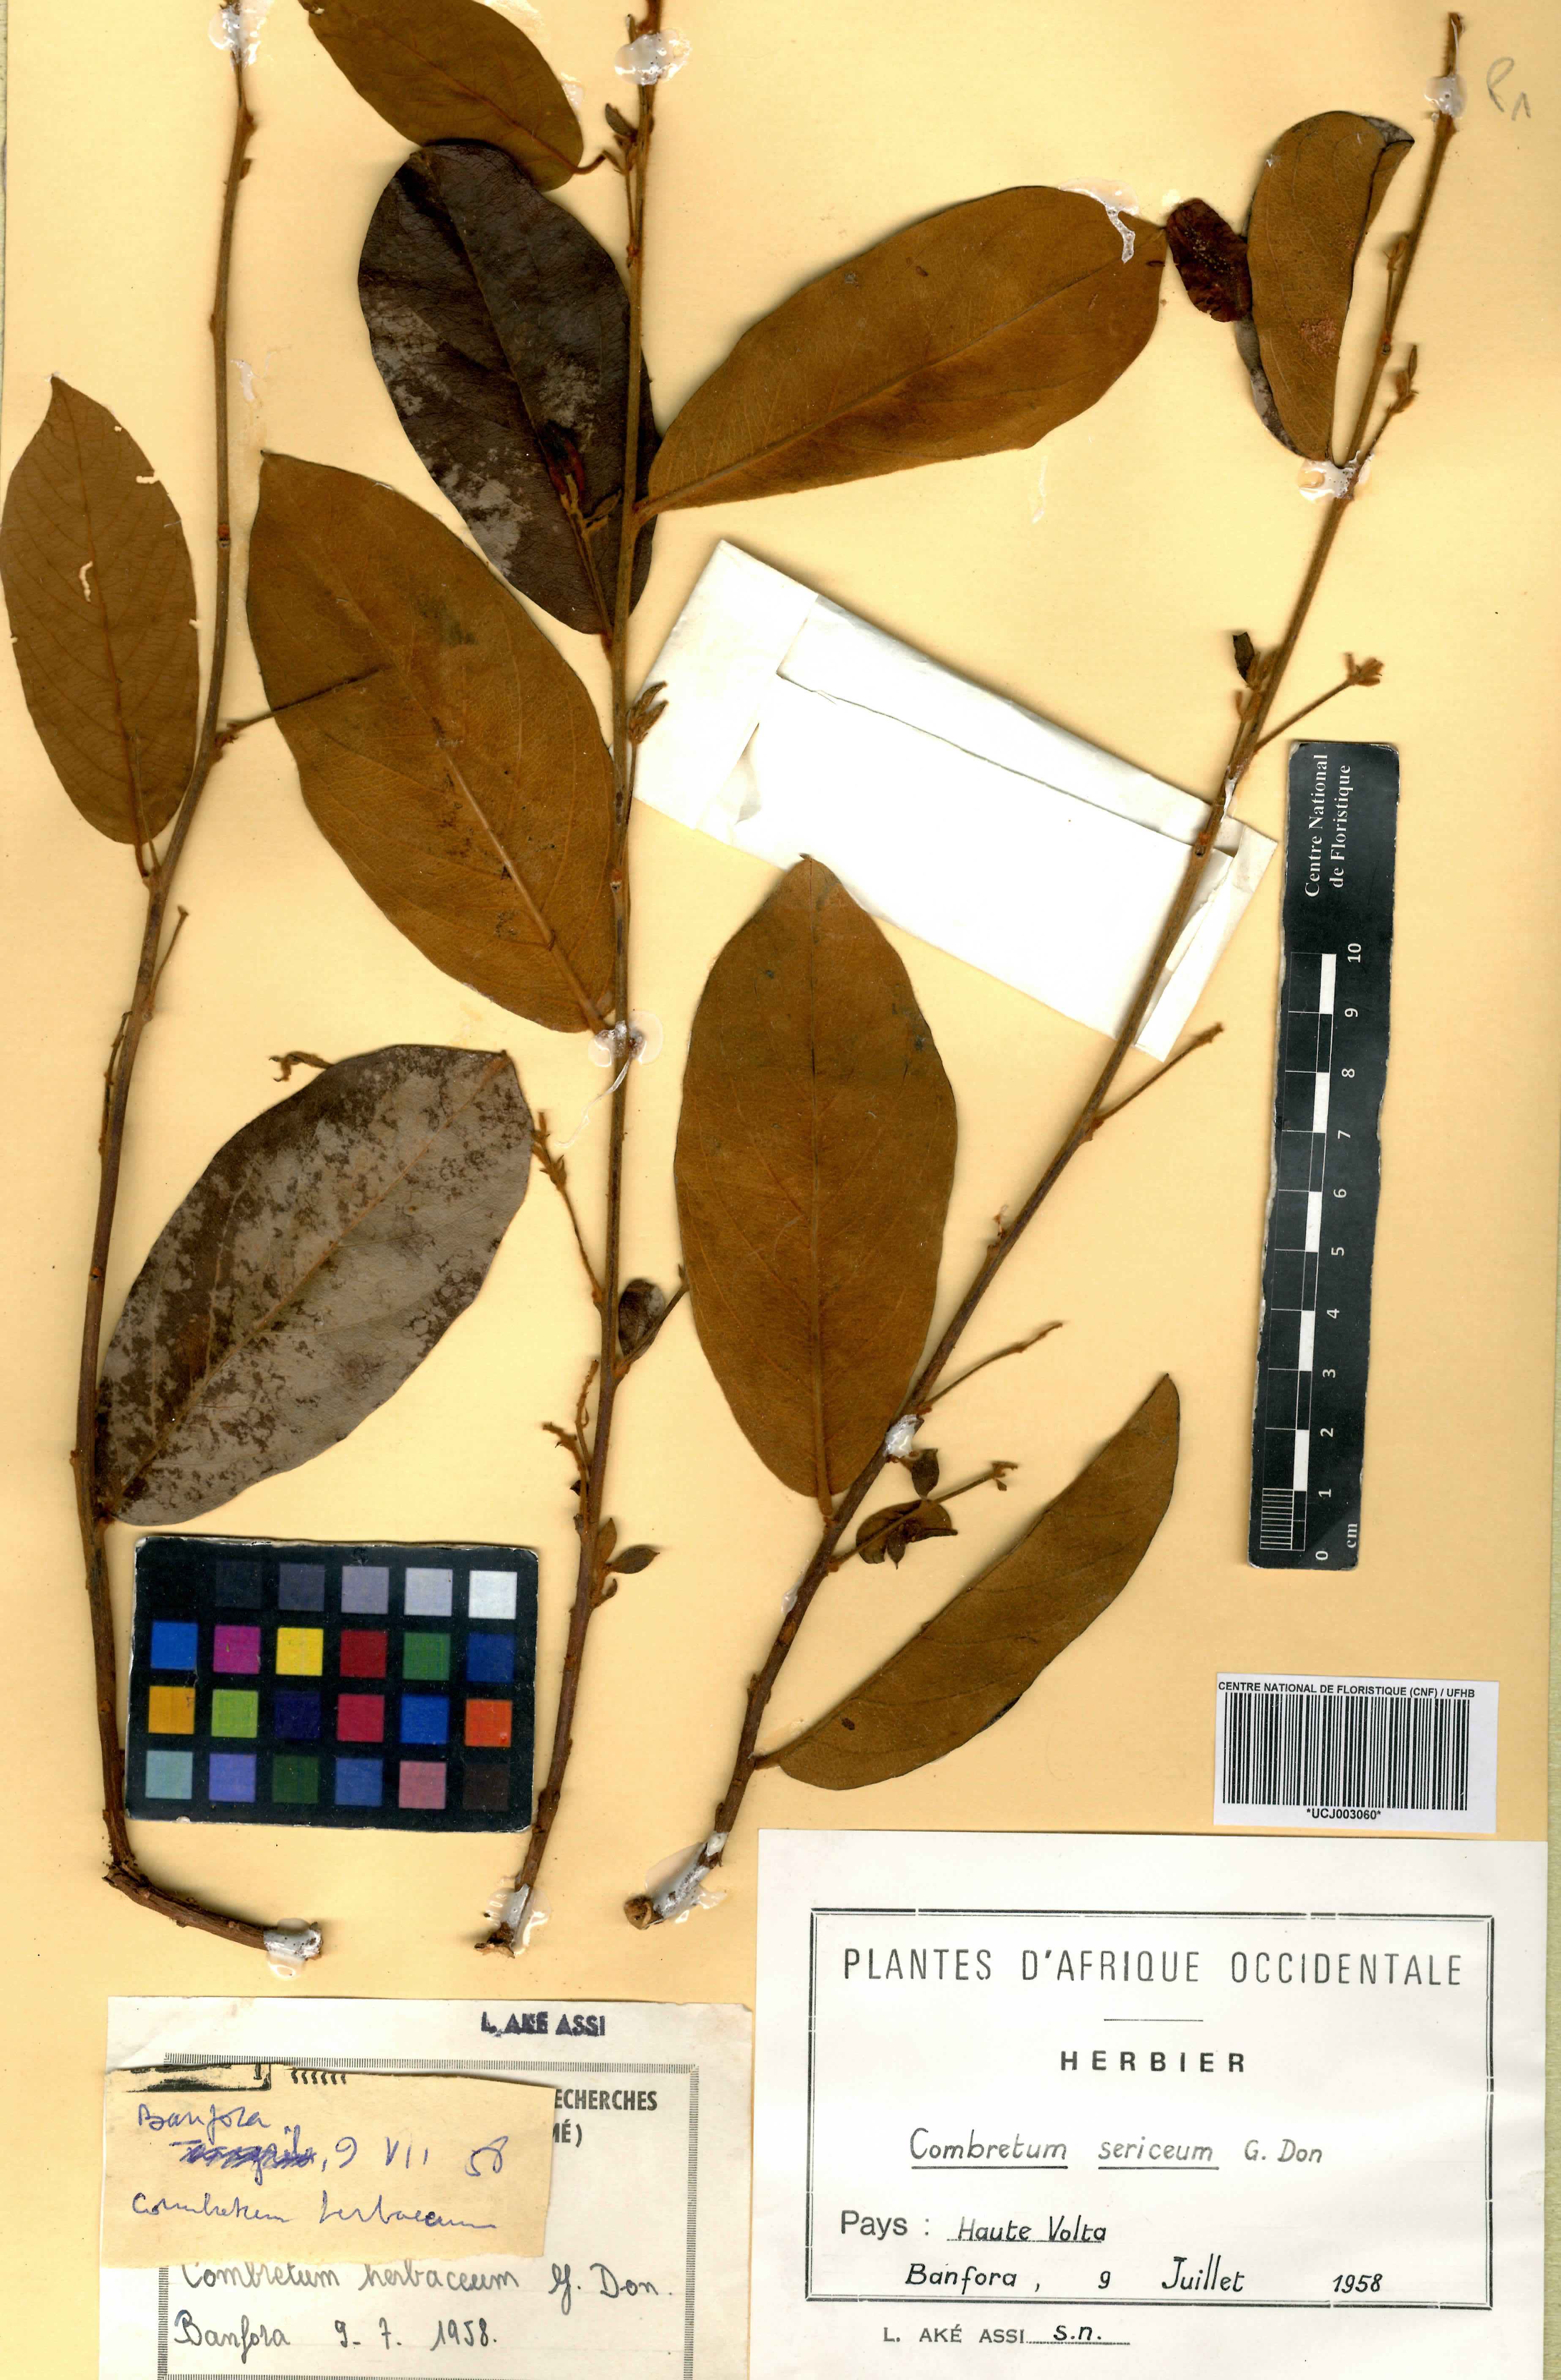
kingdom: Plantae
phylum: Tracheophyta
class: Magnoliopsida
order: Myrtales
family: Combretaceae
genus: Combretum
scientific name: Combretum sericeum
